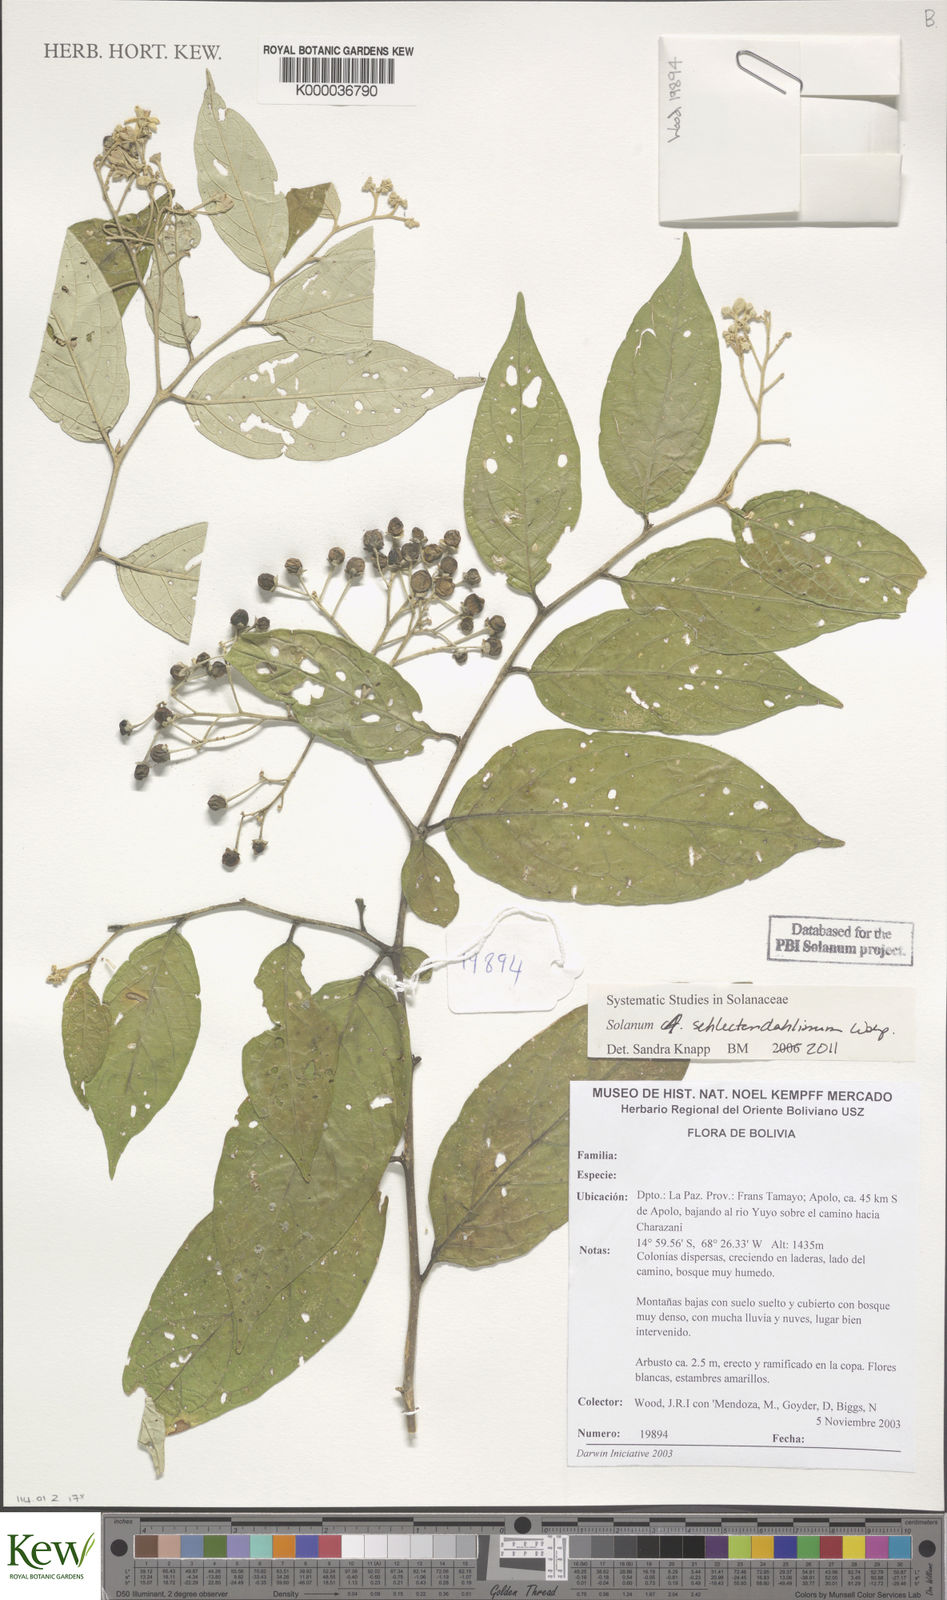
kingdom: Plantae
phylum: Tracheophyta
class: Magnoliopsida
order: Solanales
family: Solanaceae
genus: Solanum
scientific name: Solanum schlechtendalianum
